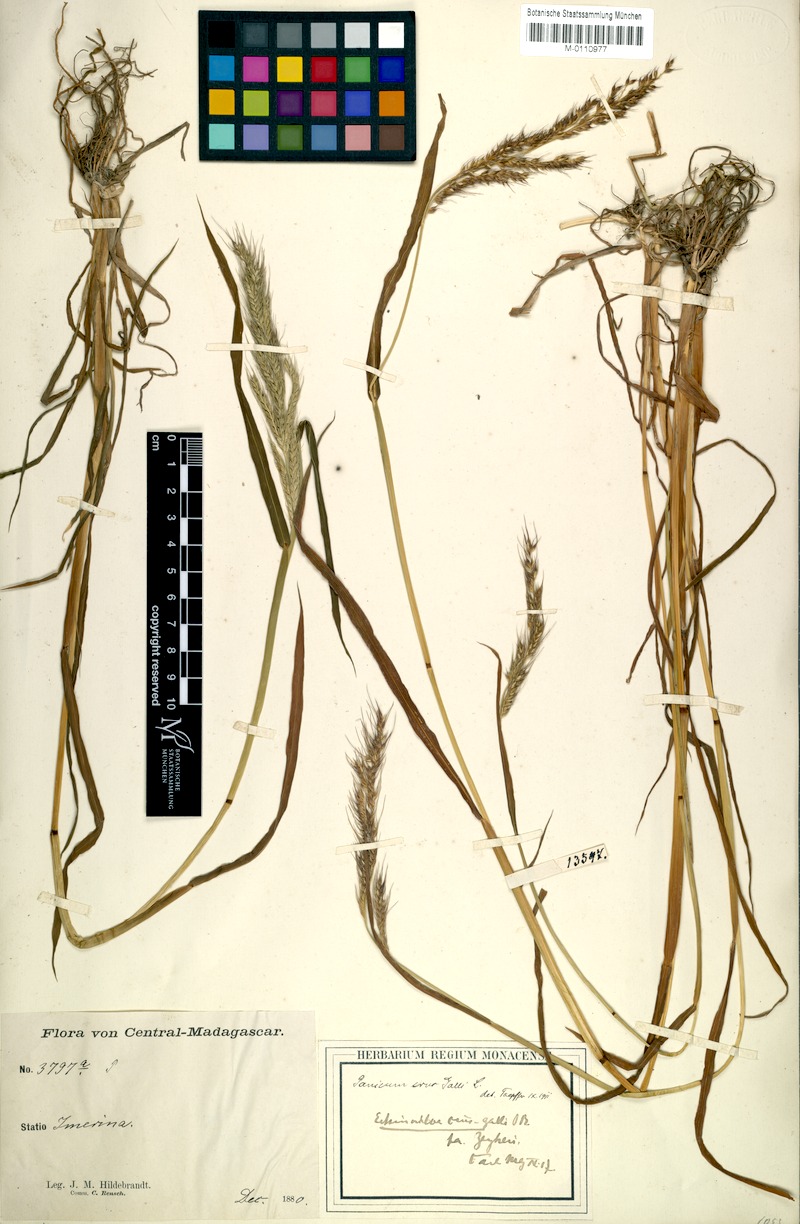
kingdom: Plantae
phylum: Tracheophyta
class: Liliopsida
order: Poales
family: Poaceae
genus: Echinochloa
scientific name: Echinochloa crus-gallii
